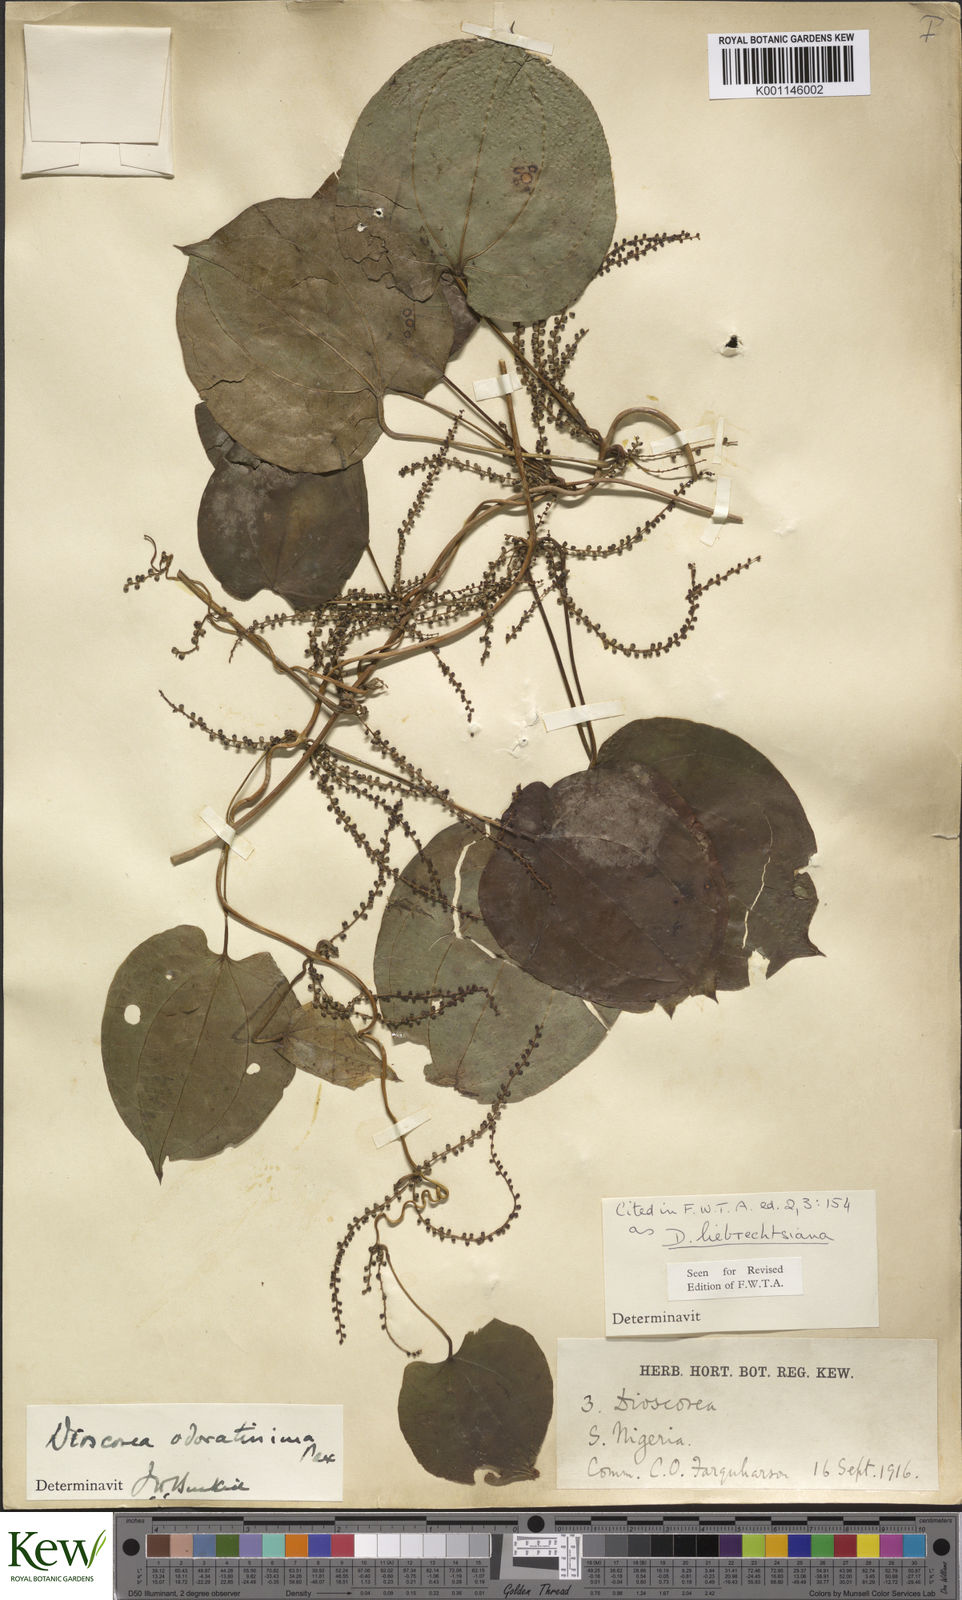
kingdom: Plantae
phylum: Tracheophyta
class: Liliopsida
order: Dioscoreales
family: Dioscoreaceae
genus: Dioscorea
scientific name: Dioscorea praehensilis
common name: Bush yam
